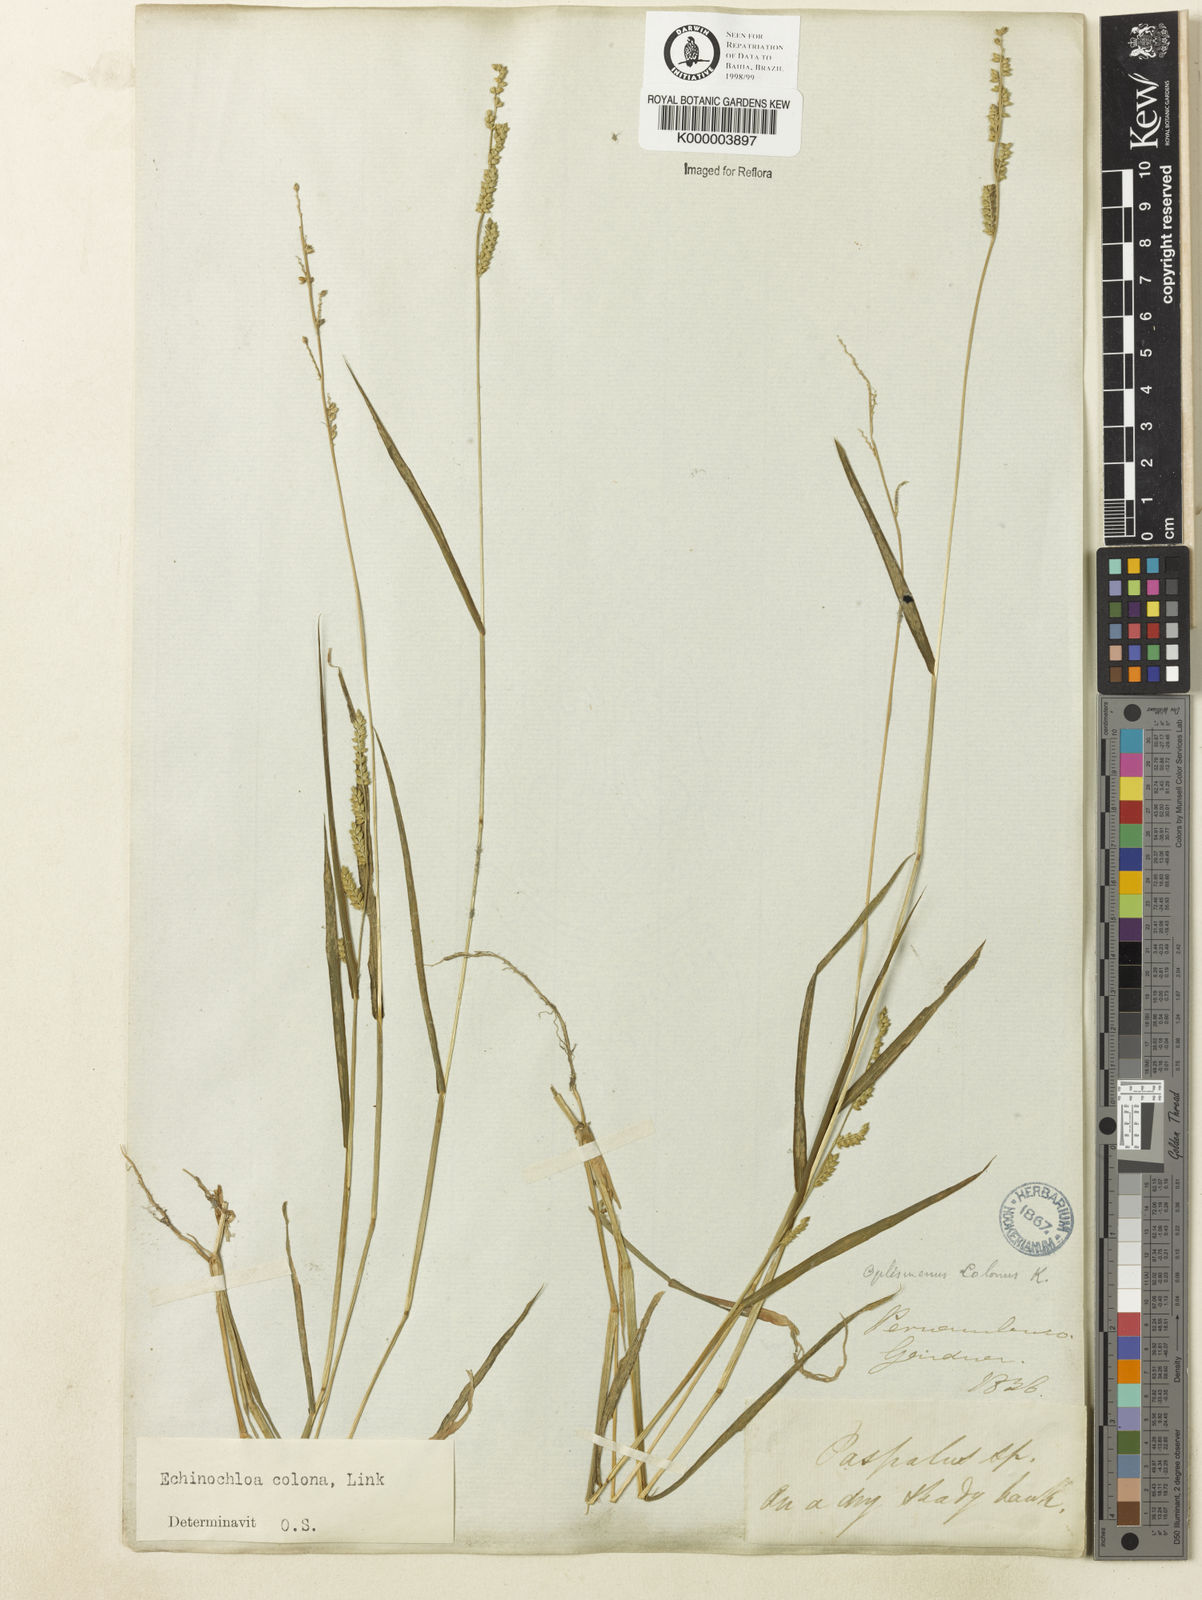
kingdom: Plantae
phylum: Tracheophyta
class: Liliopsida
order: Poales
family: Poaceae
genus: Echinochloa
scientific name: Echinochloa colonum
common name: Jungle rice
